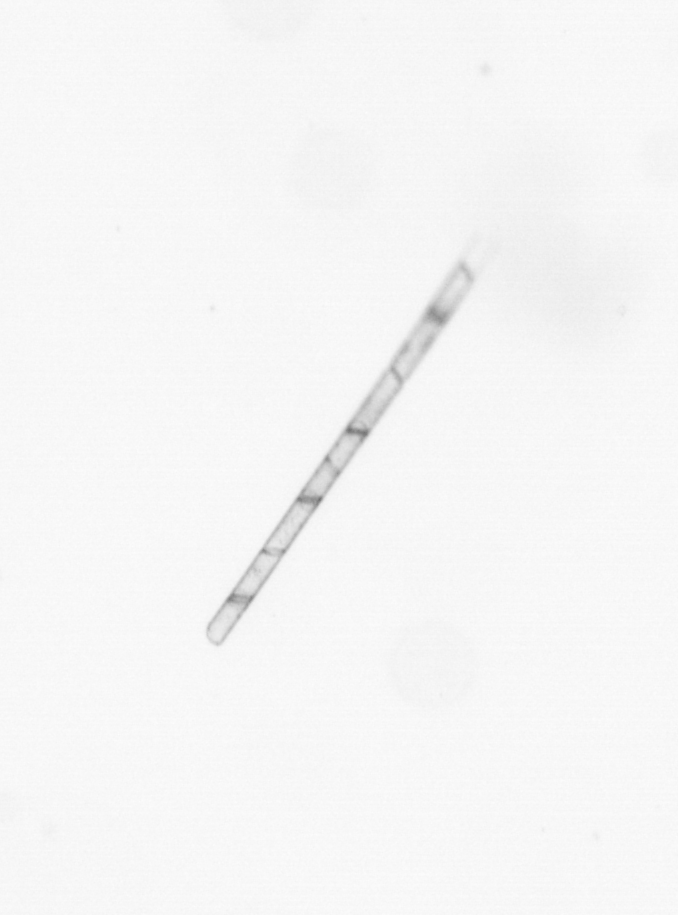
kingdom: Chromista
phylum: Ochrophyta
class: Bacillariophyceae
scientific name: Bacillariophyceae
